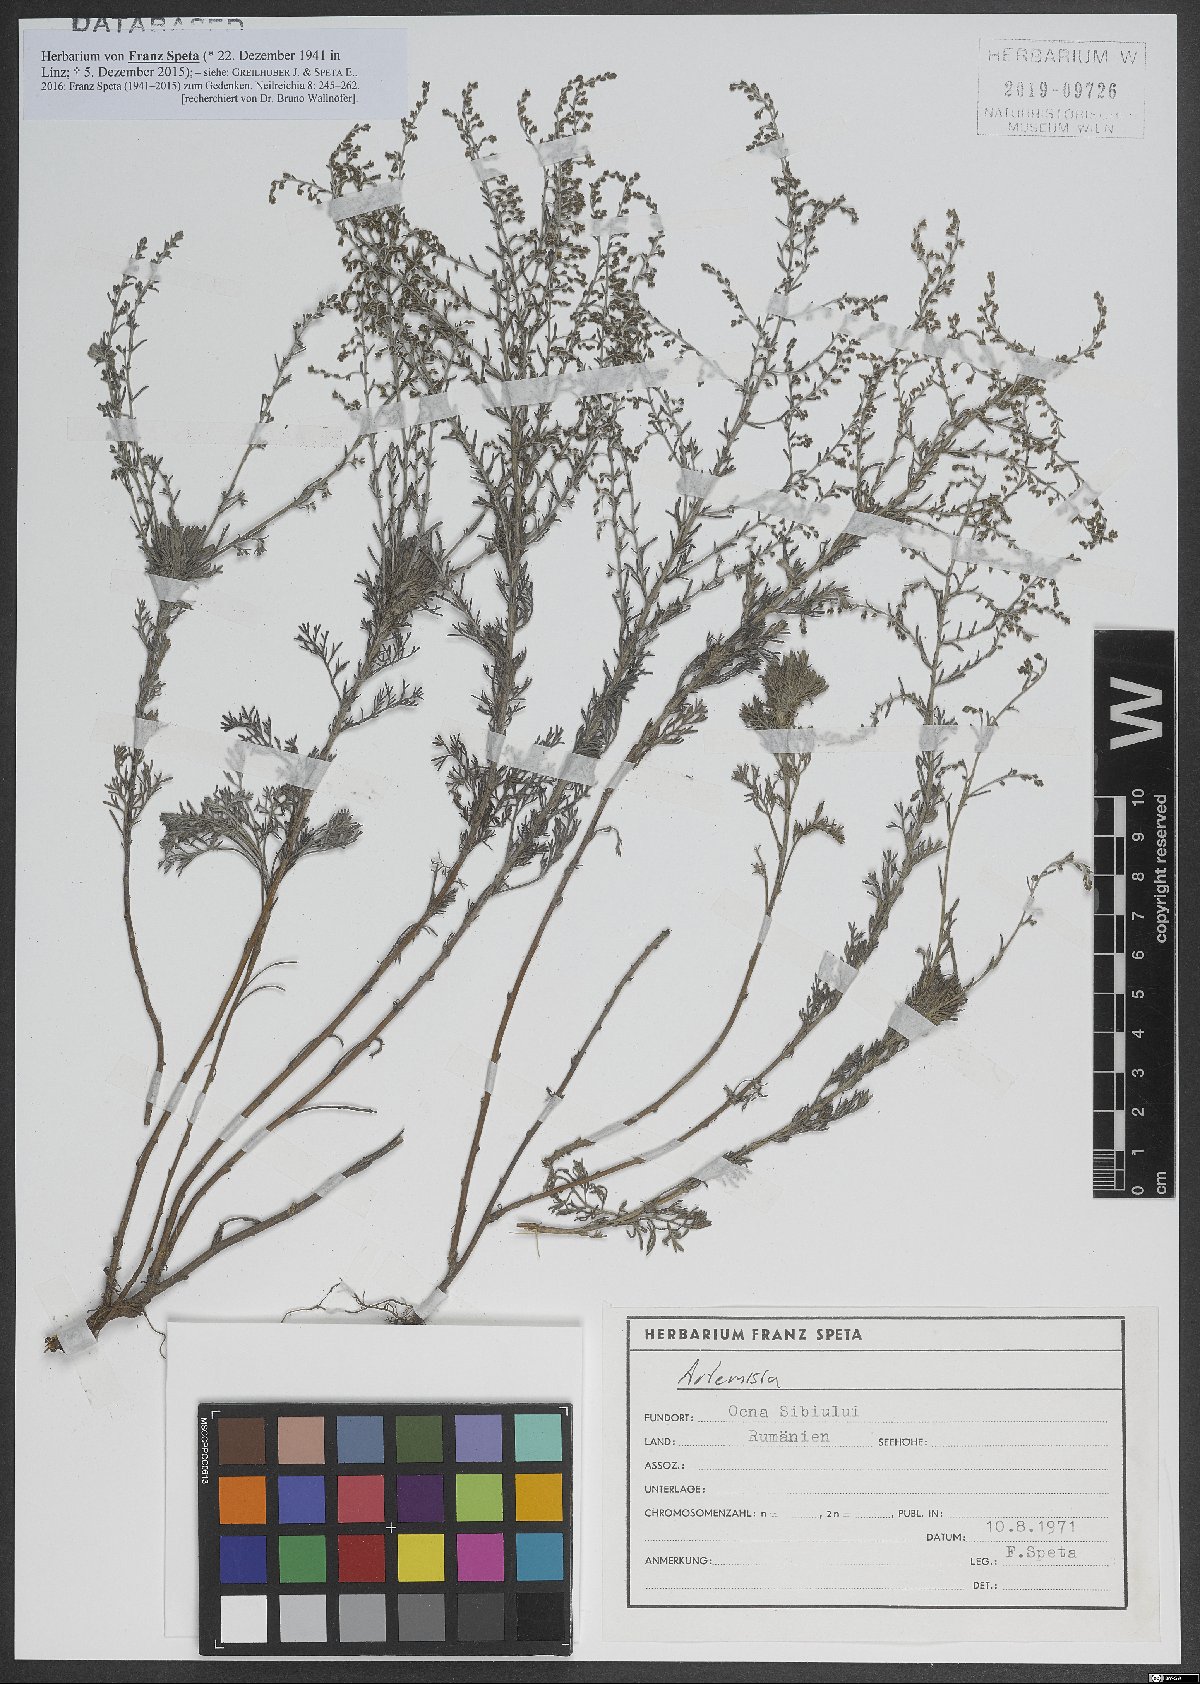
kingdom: Plantae
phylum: Tracheophyta
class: Magnoliopsida
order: Asterales
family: Asteraceae
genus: Artemisia
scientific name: Artemisia
